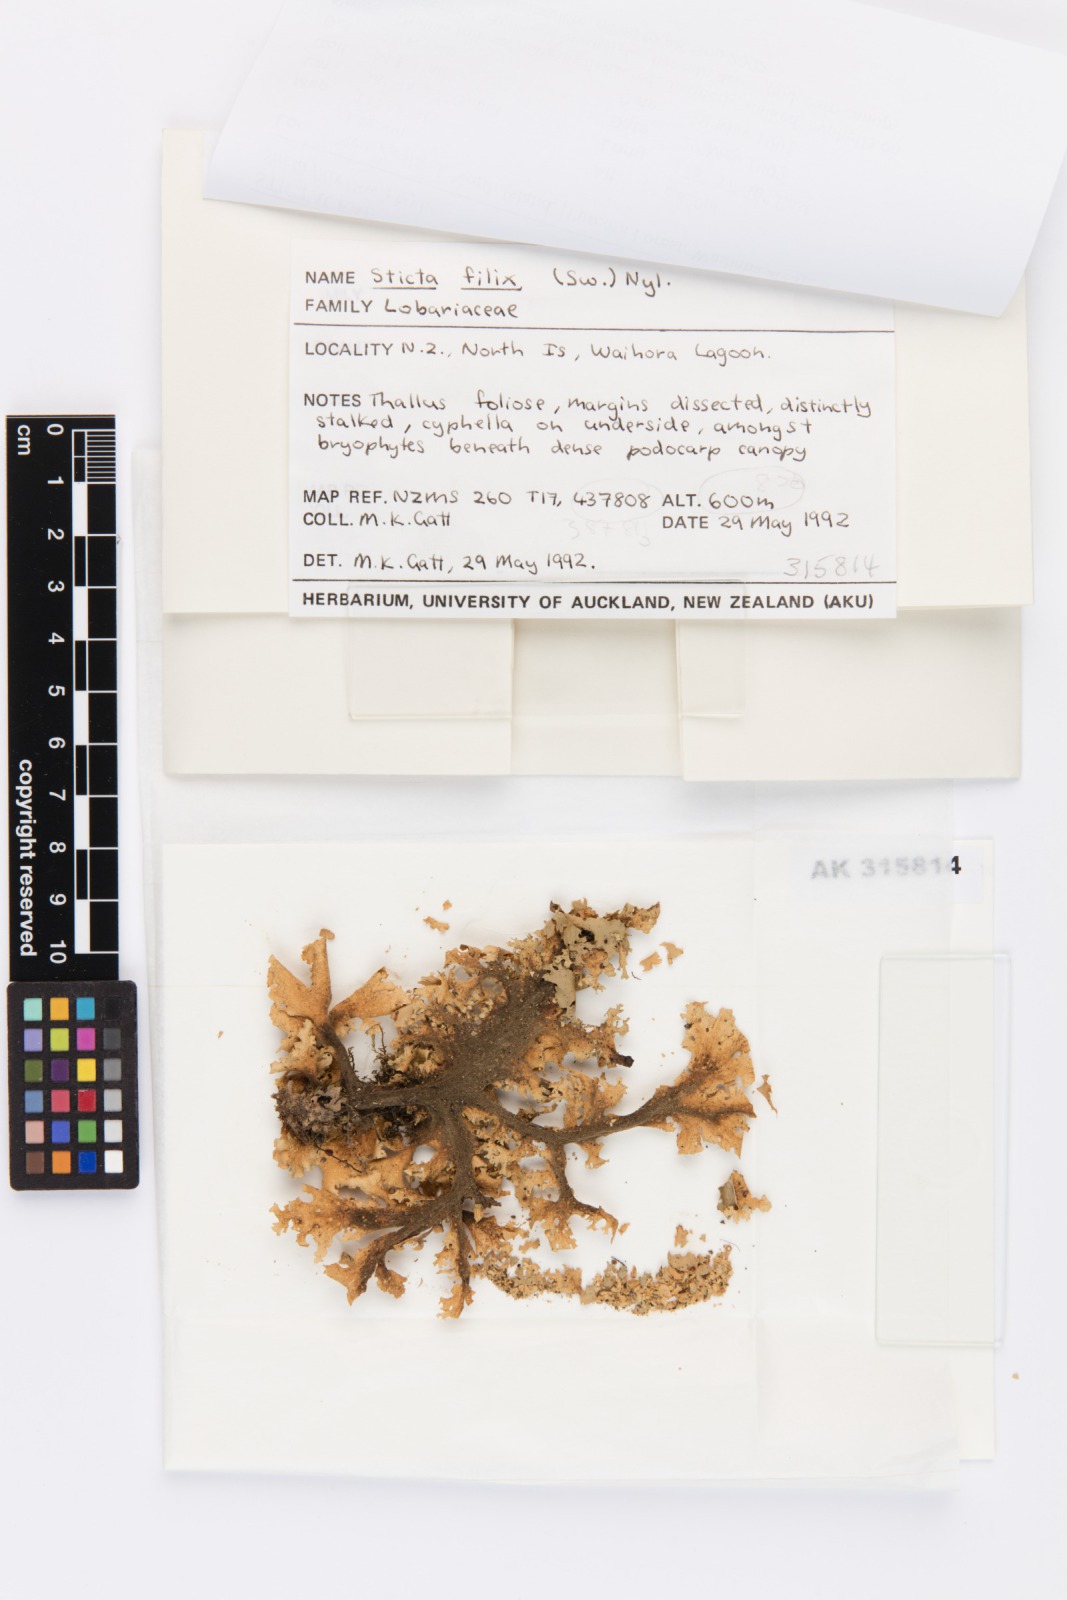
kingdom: Fungi
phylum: Ascomycota
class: Lecanoromycetes
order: Peltigerales
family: Lobariaceae
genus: Sticta
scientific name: Sticta filix
